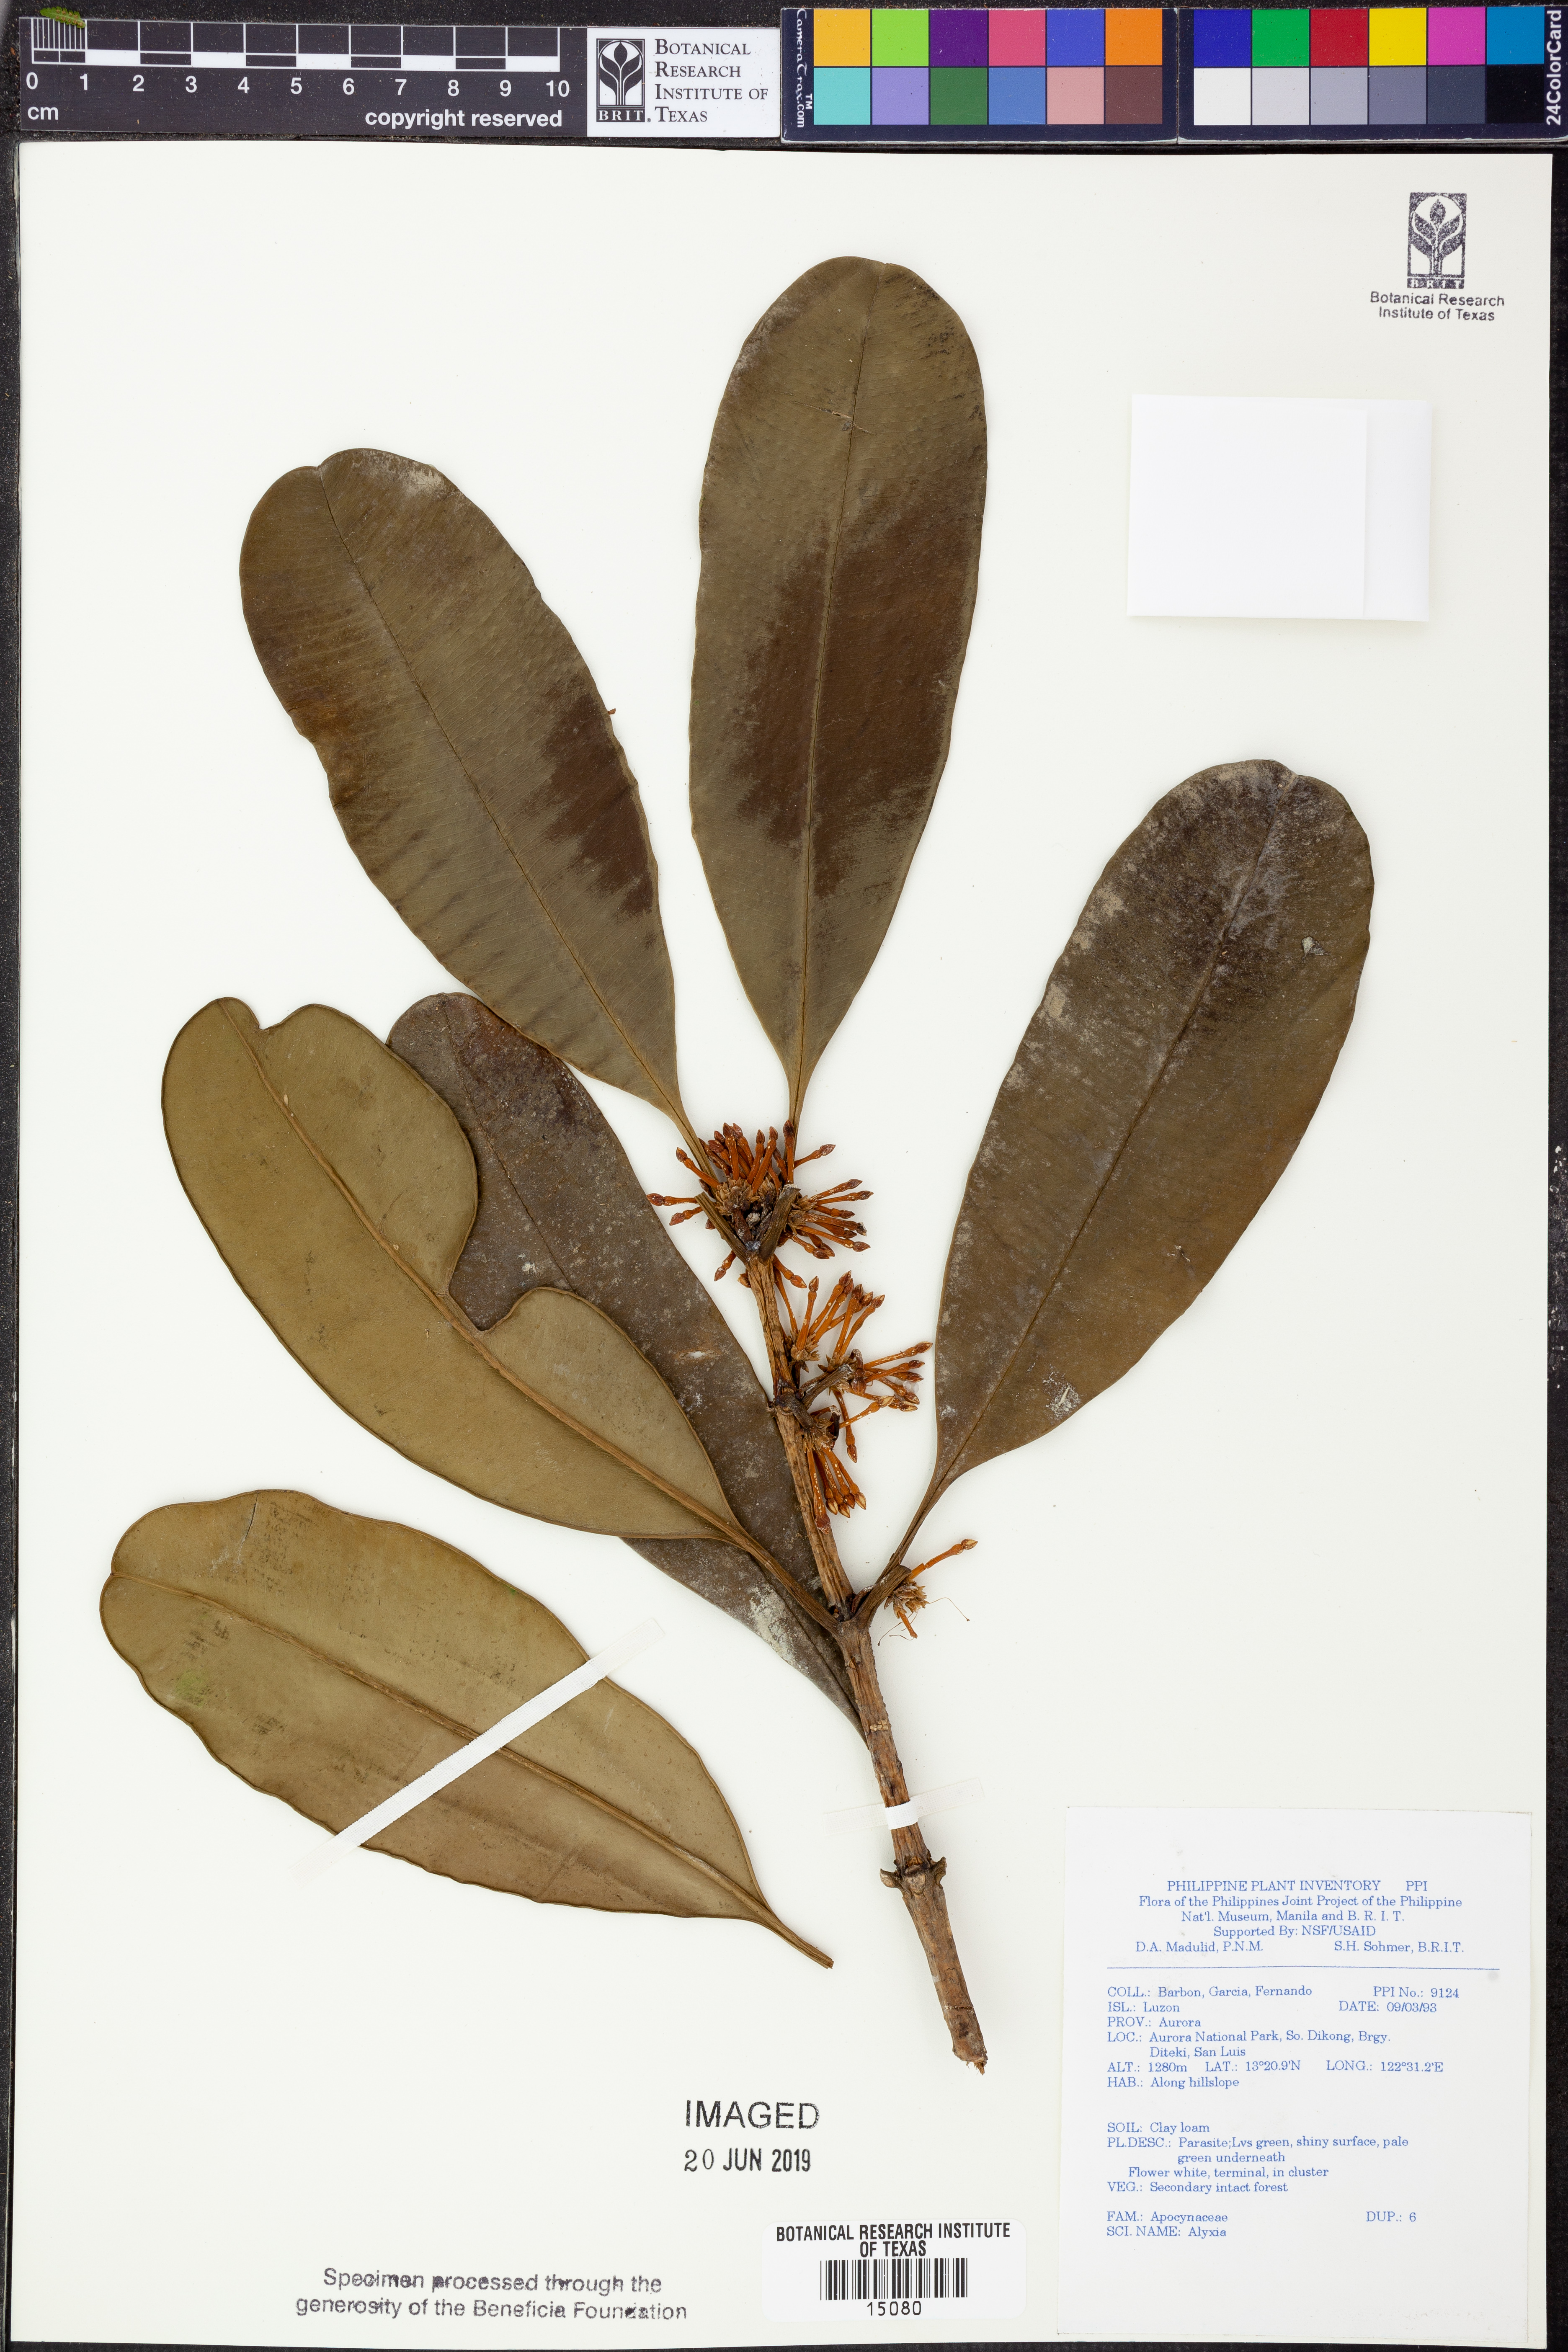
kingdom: Plantae
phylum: Tracheophyta
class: Magnoliopsida
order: Gentianales
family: Apocynaceae
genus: Alyxia
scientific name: Alyxia
